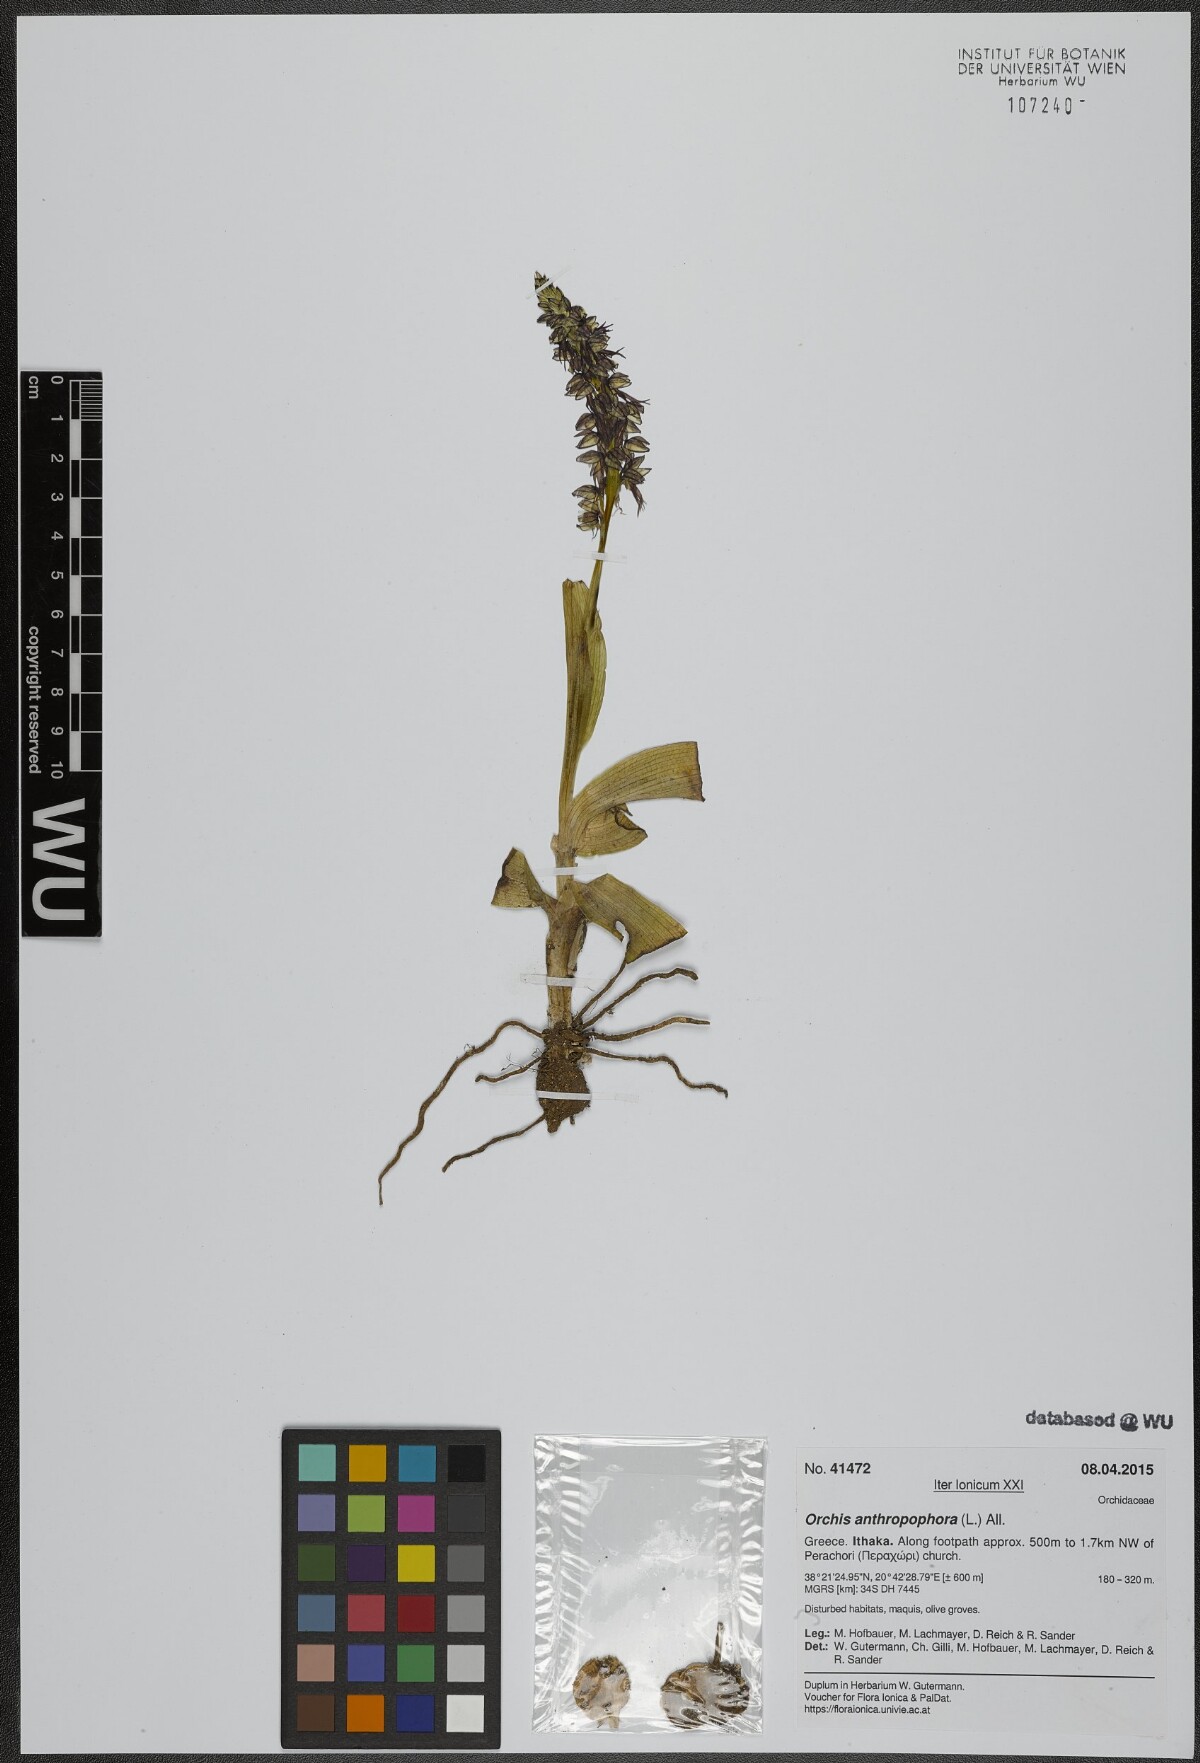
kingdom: Plantae
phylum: Tracheophyta
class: Liliopsida
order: Asparagales
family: Orchidaceae
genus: Orchis
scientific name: Orchis anthropophora
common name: Man orchid
